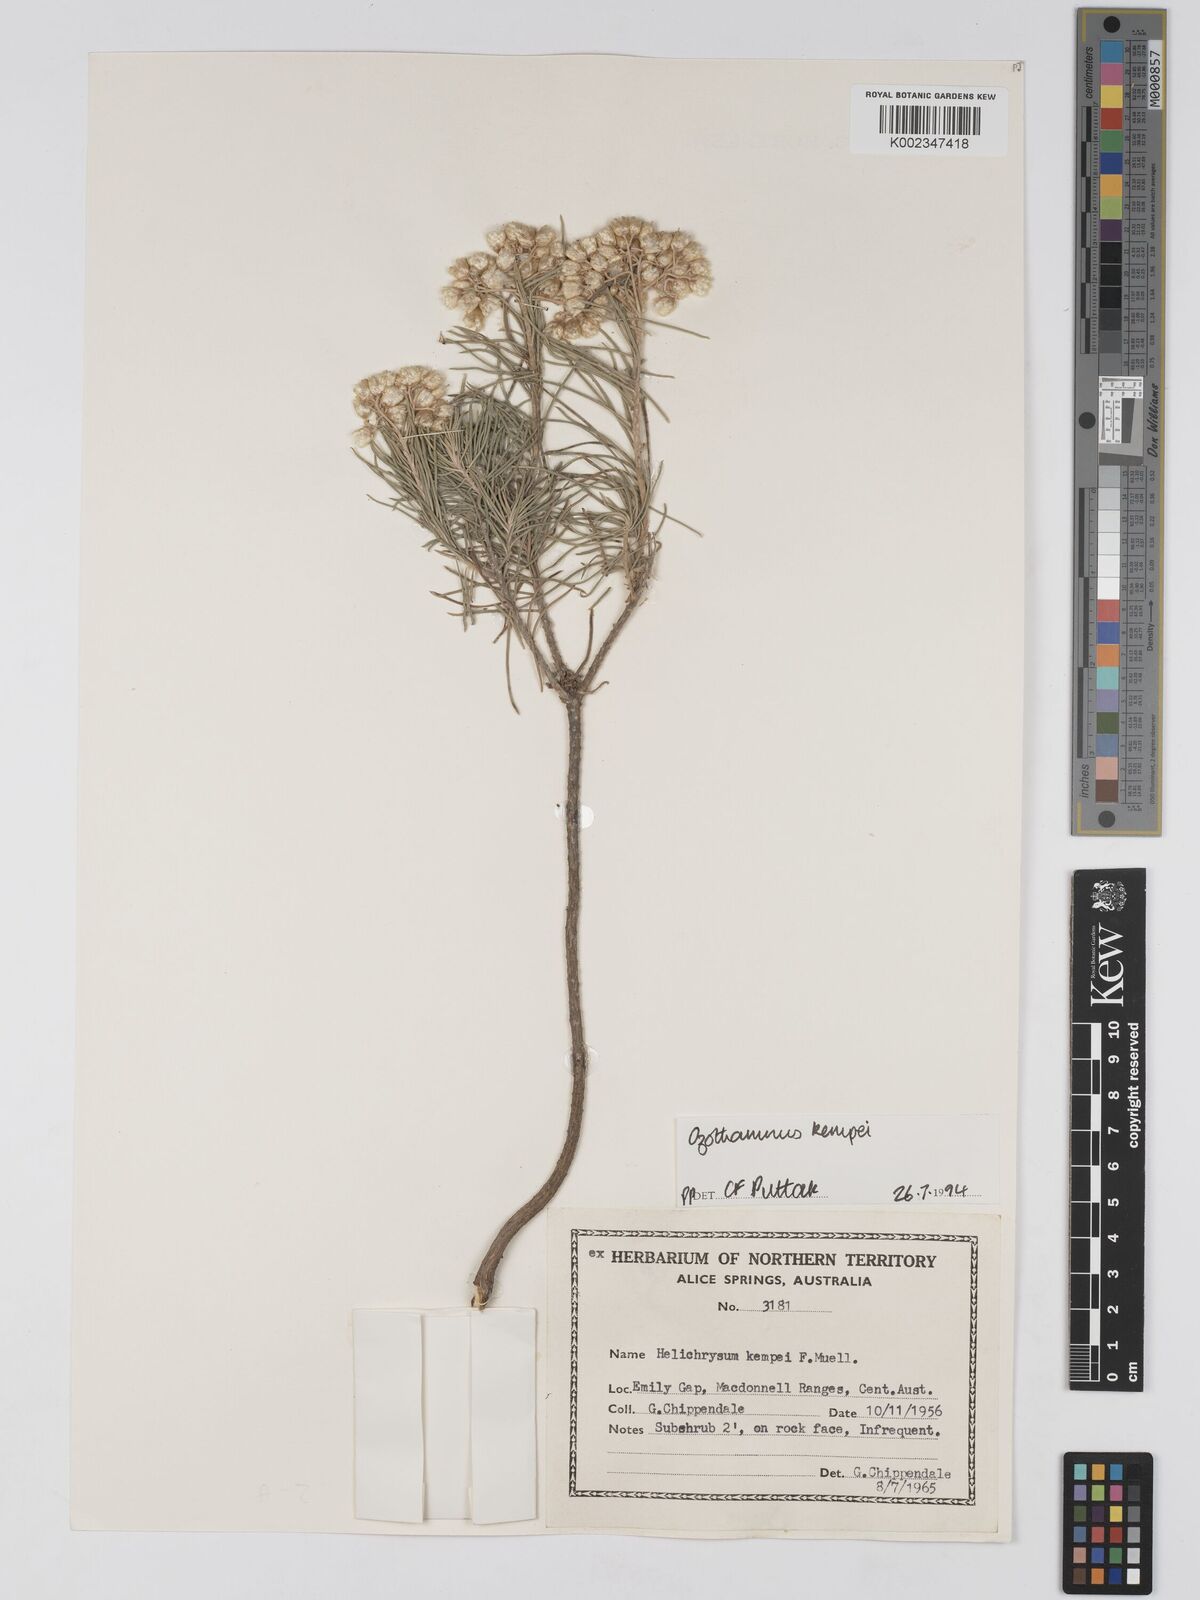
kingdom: Plantae
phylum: Tracheophyta
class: Magnoliopsida
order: Asterales
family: Asteraceae
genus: Ozothamnus
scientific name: Ozothamnus kempei
